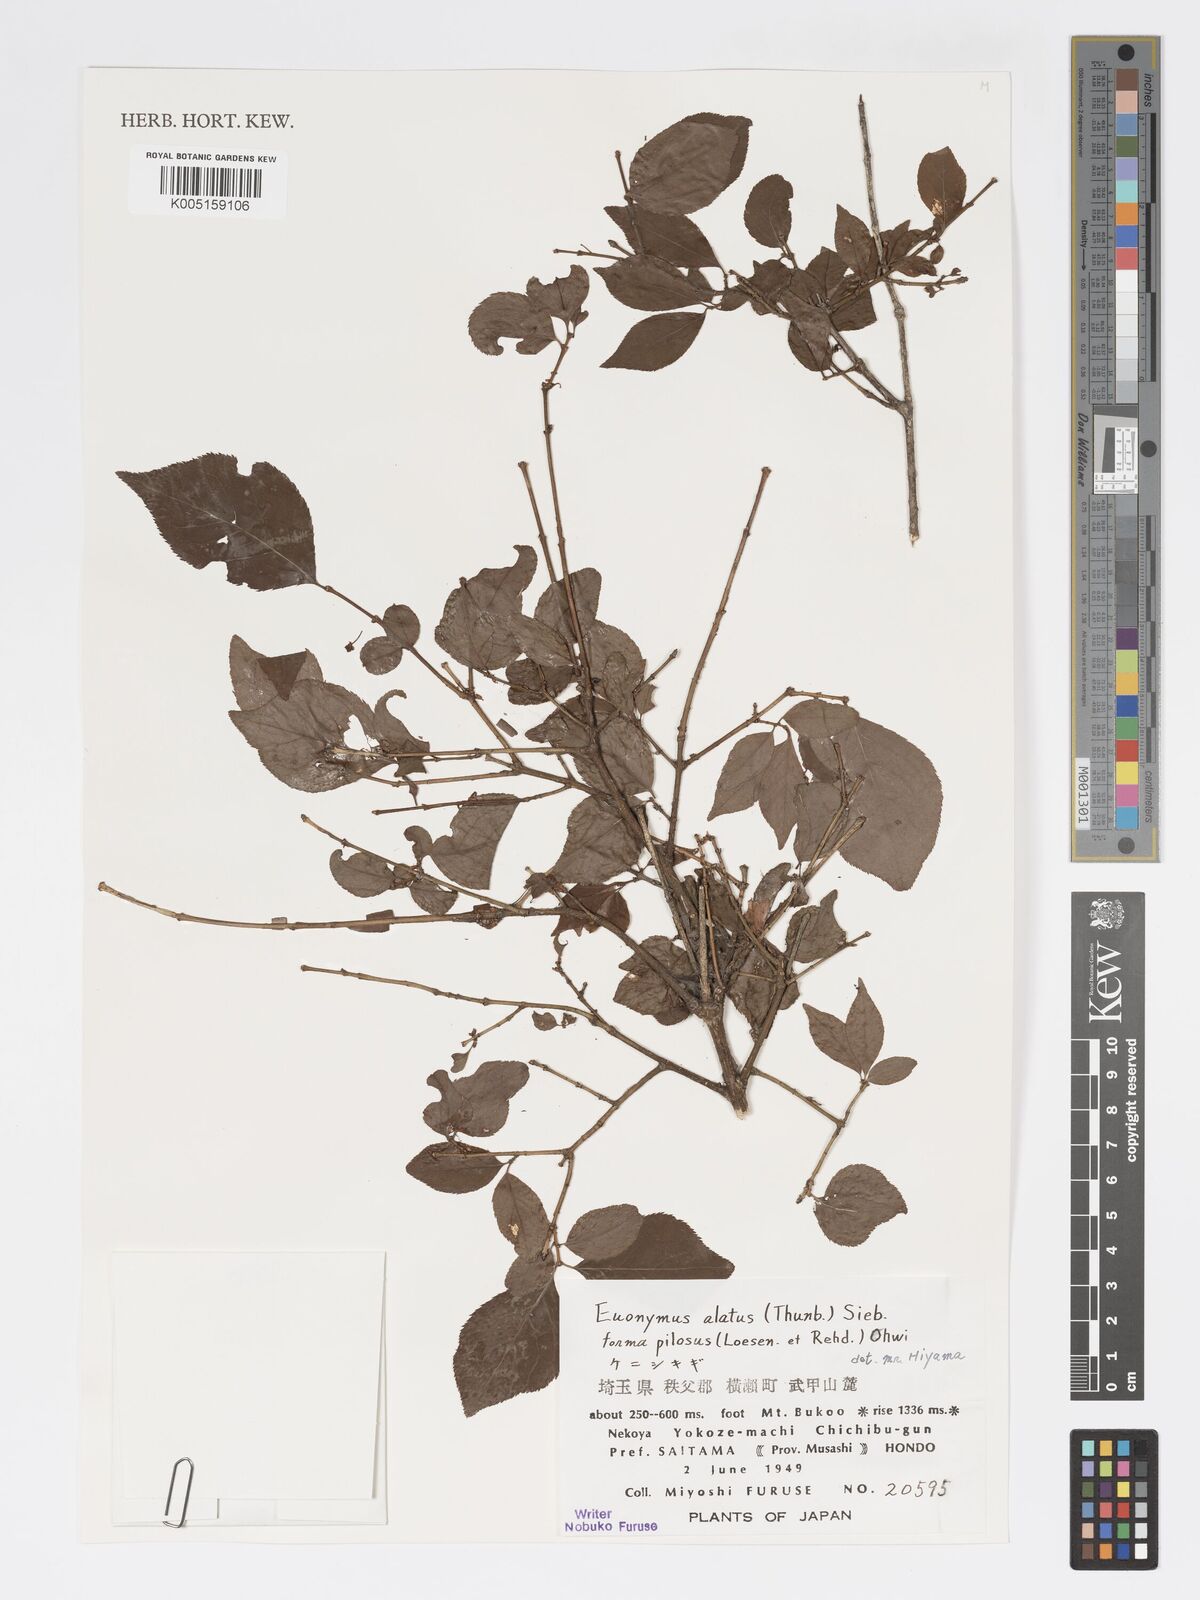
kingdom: Plantae
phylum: Tracheophyta
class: Magnoliopsida
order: Celastrales
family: Celastraceae
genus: Euonymus
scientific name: Euonymus
